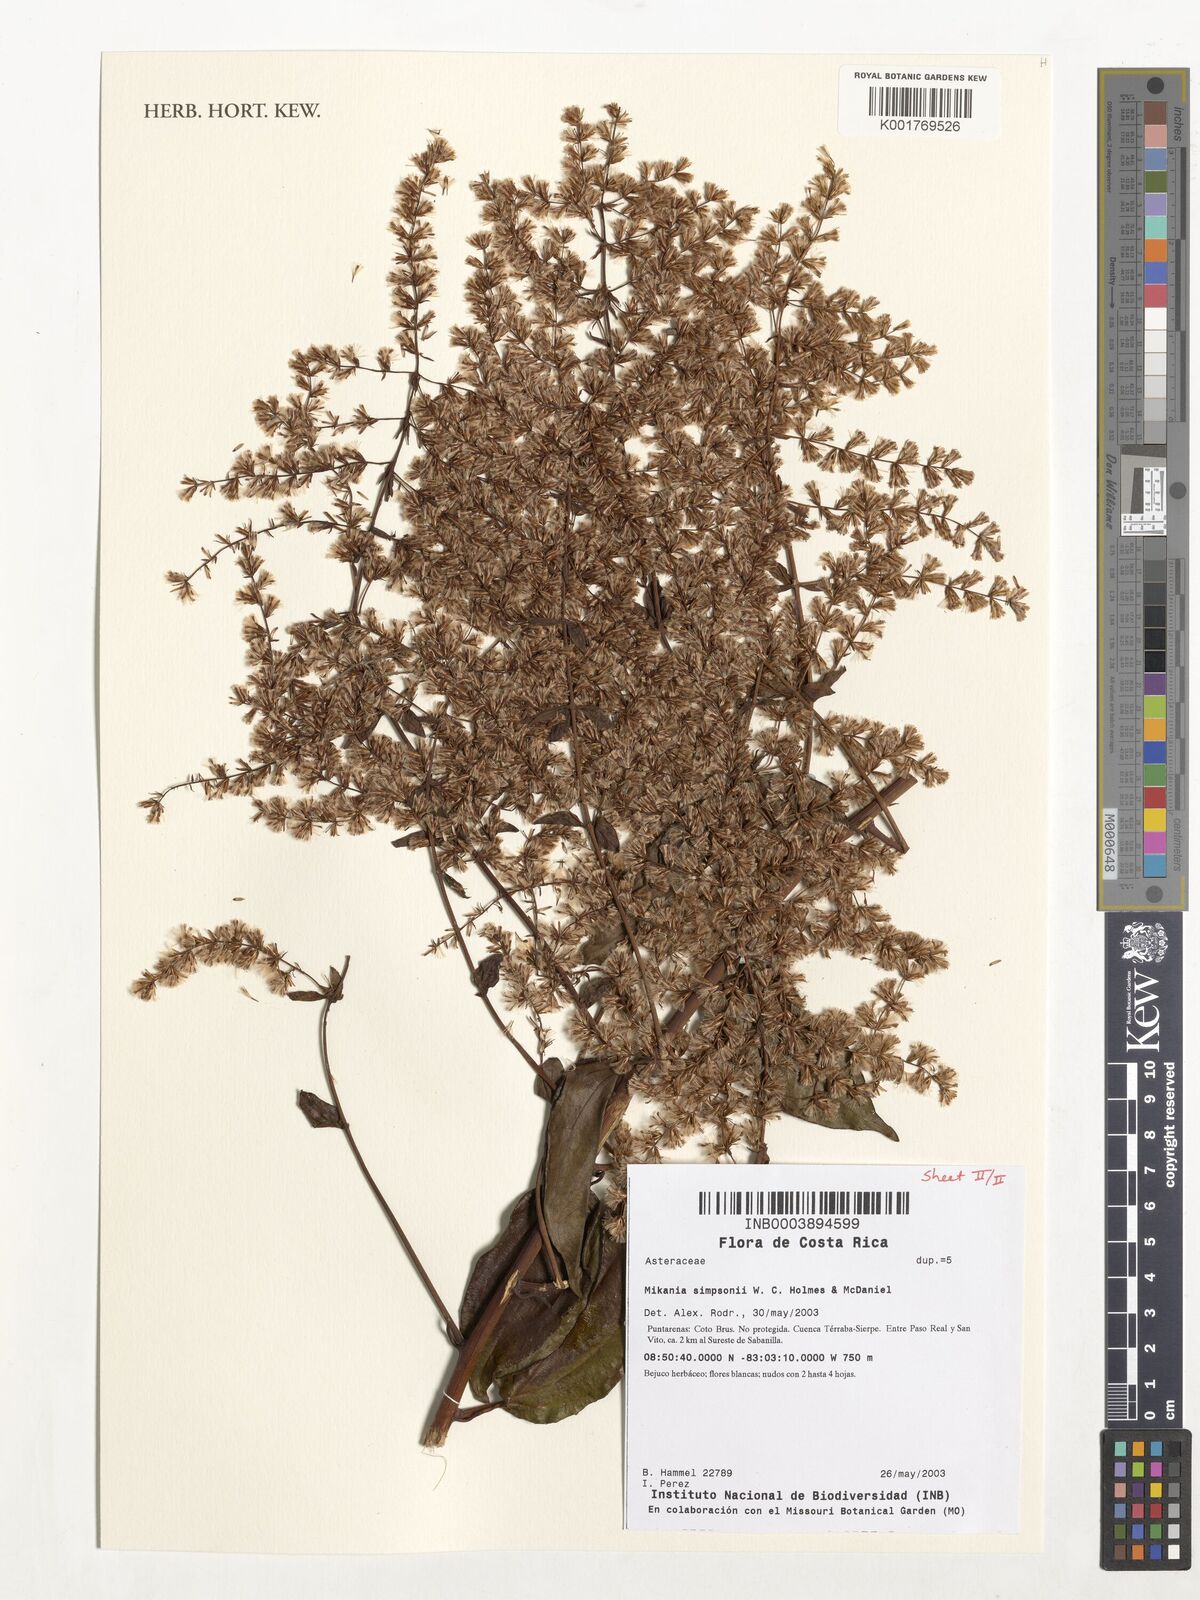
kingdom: Plantae
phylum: Tracheophyta
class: Magnoliopsida
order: Asterales
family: Asteraceae
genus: Mikania
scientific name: Mikania simpsonii
